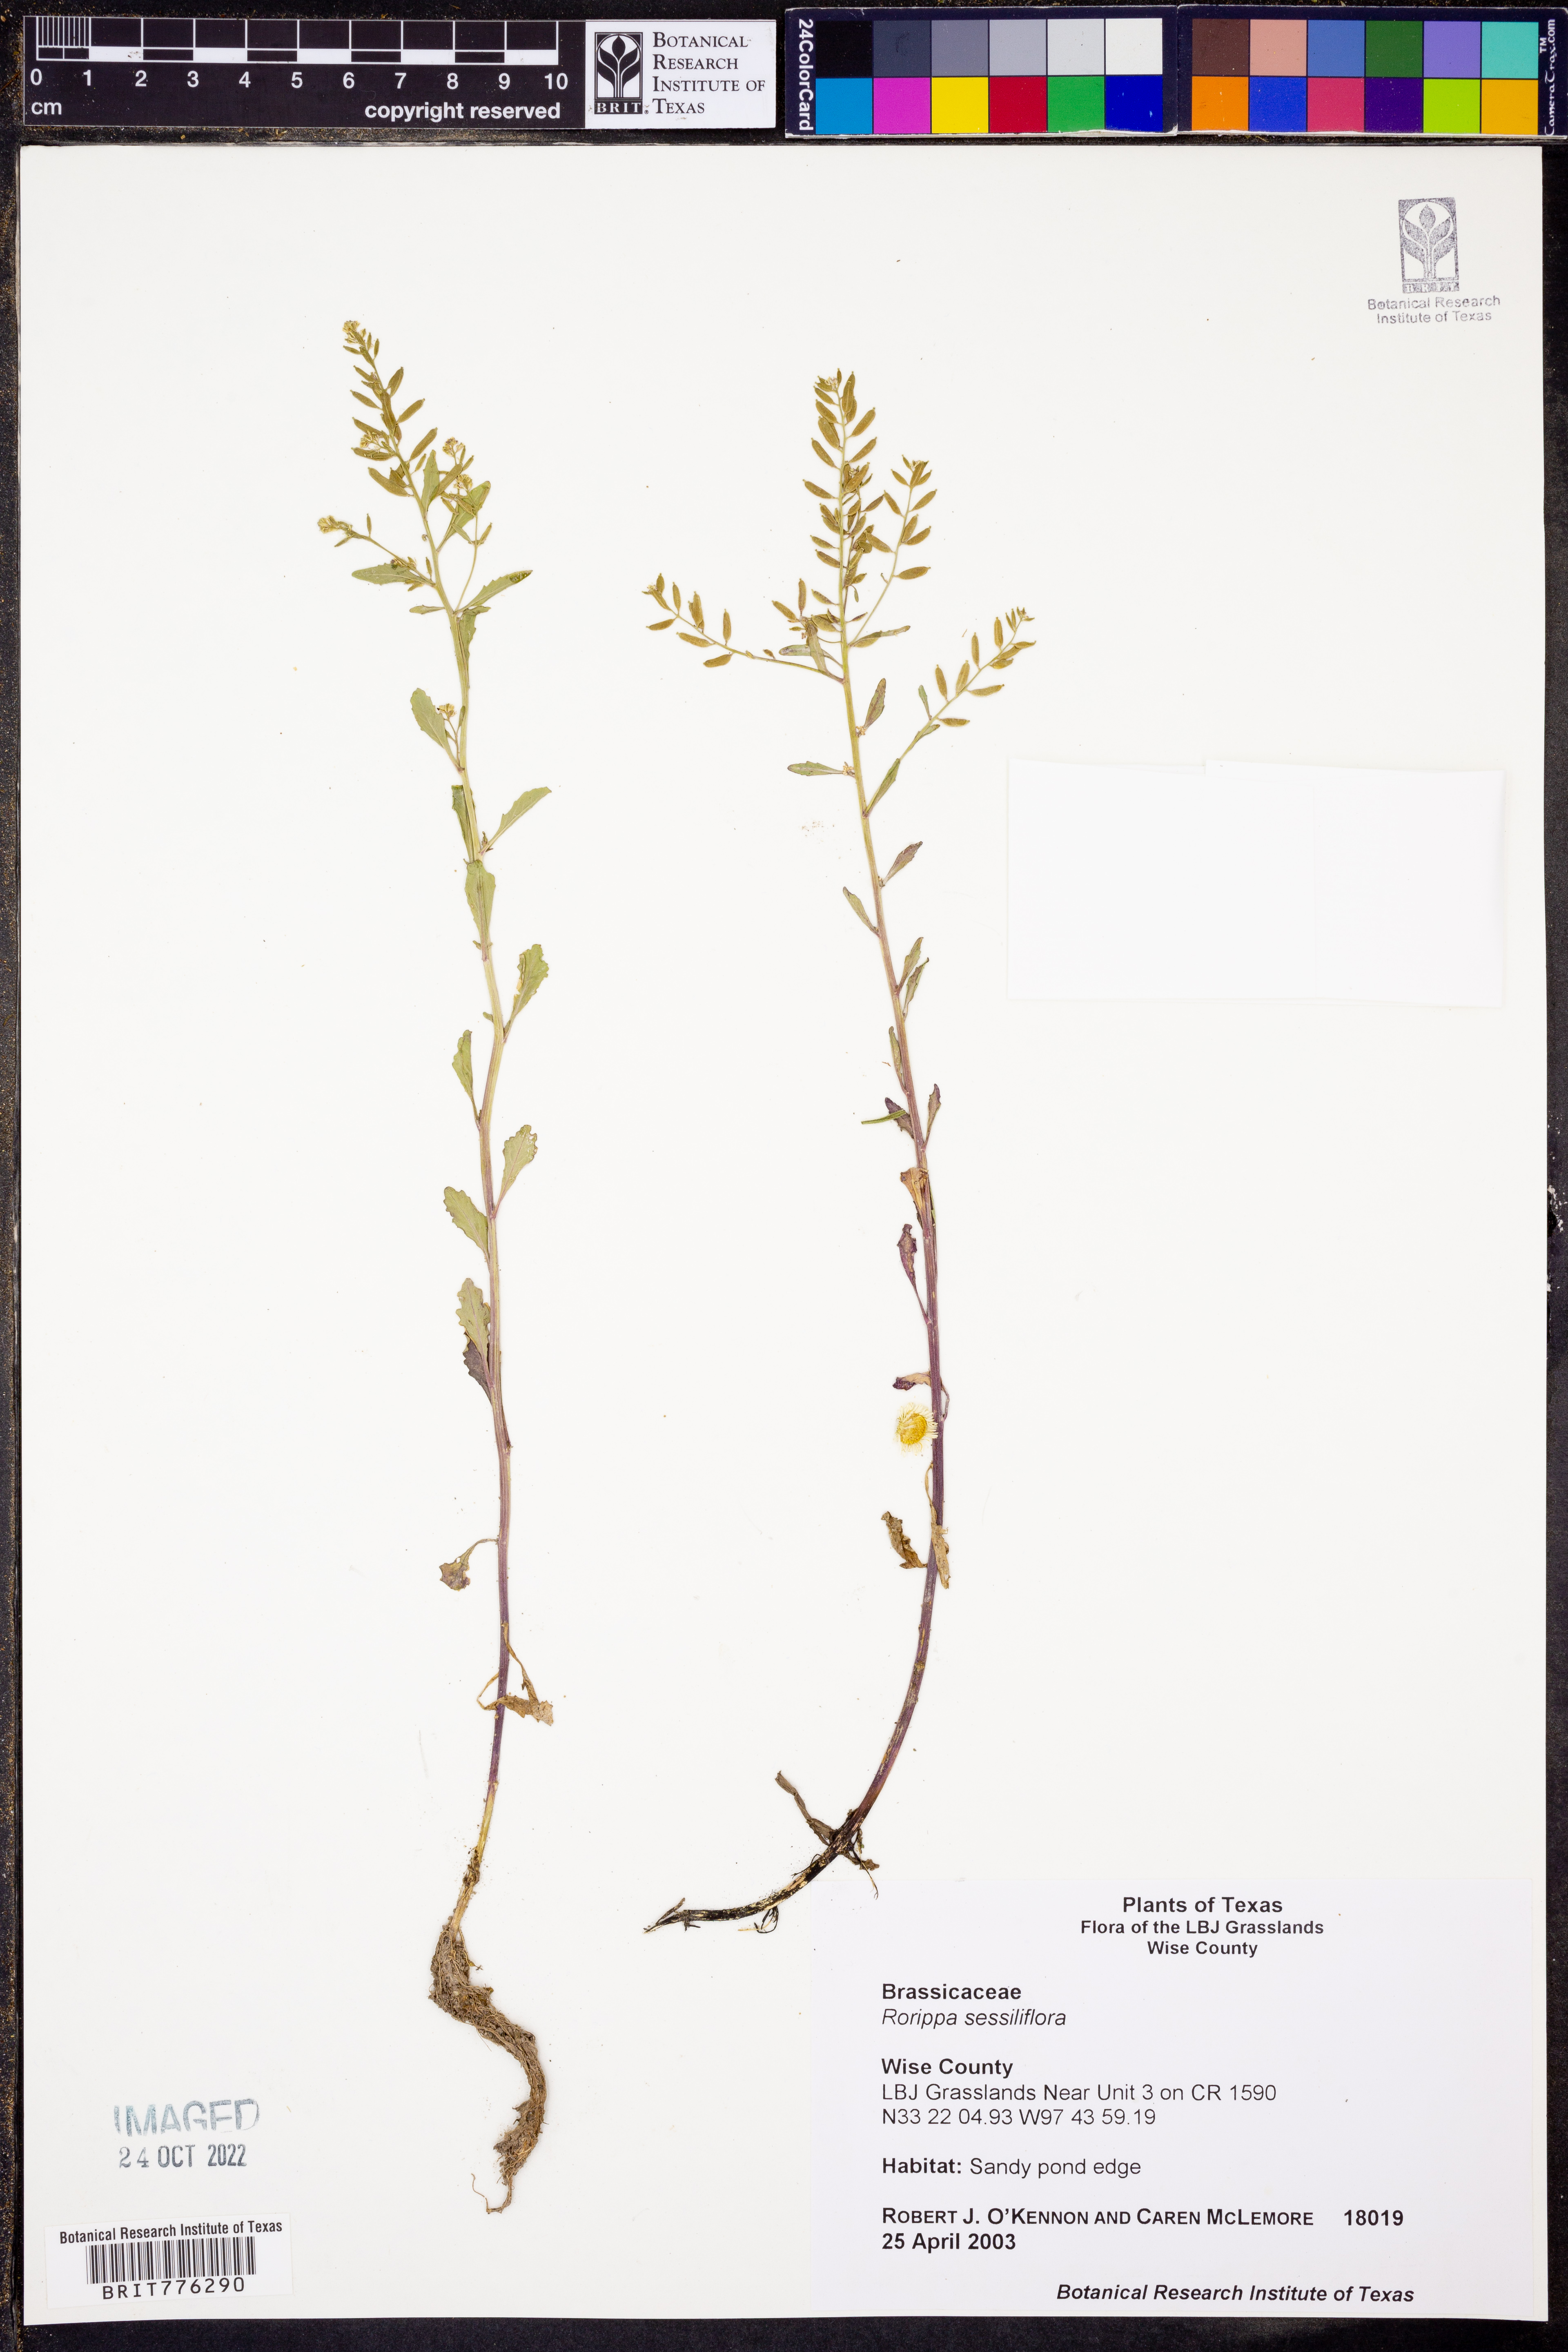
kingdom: Plantae
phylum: Tracheophyta
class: Magnoliopsida
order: Brassicales
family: Brassicaceae
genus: Rorippa
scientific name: Rorippa sessiliflora
